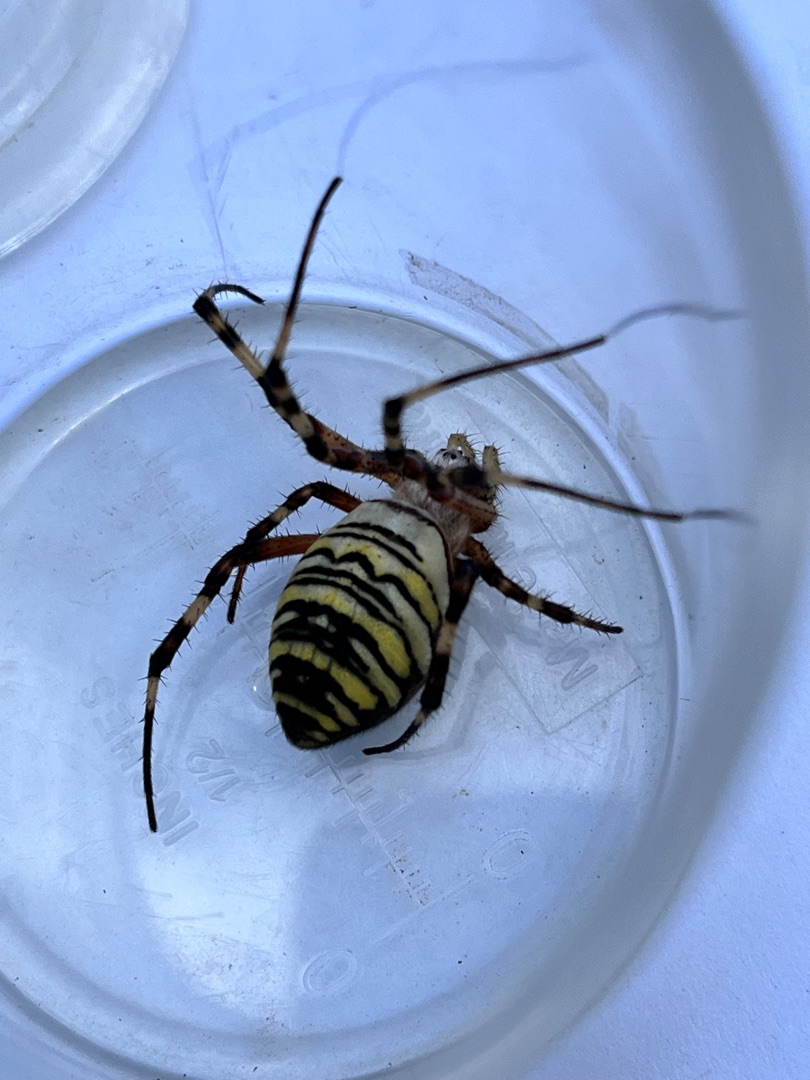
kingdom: Animalia
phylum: Arthropoda
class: Arachnida
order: Araneae
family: Araneidae
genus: Argiope
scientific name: Argiope bruennichi
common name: Hvepseedderkop
